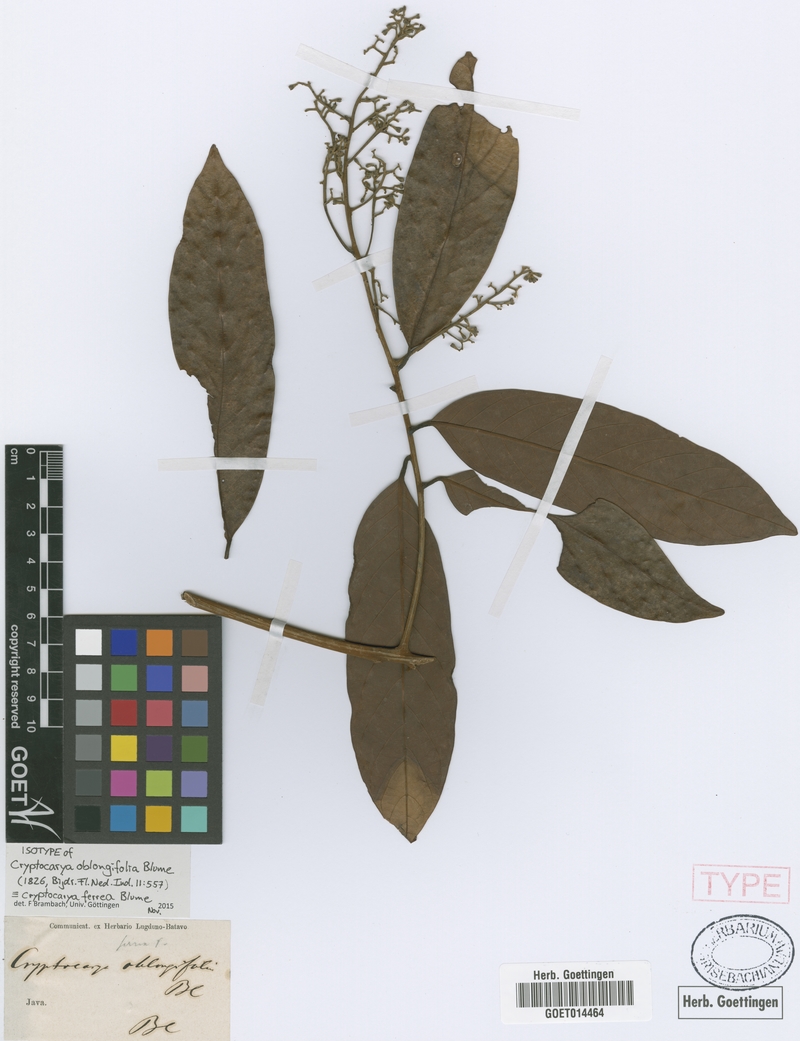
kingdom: Plantae
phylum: Tracheophyta
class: Magnoliopsida
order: Laurales
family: Lauraceae
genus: Cryptocarya
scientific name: Cryptocarya ferrea
